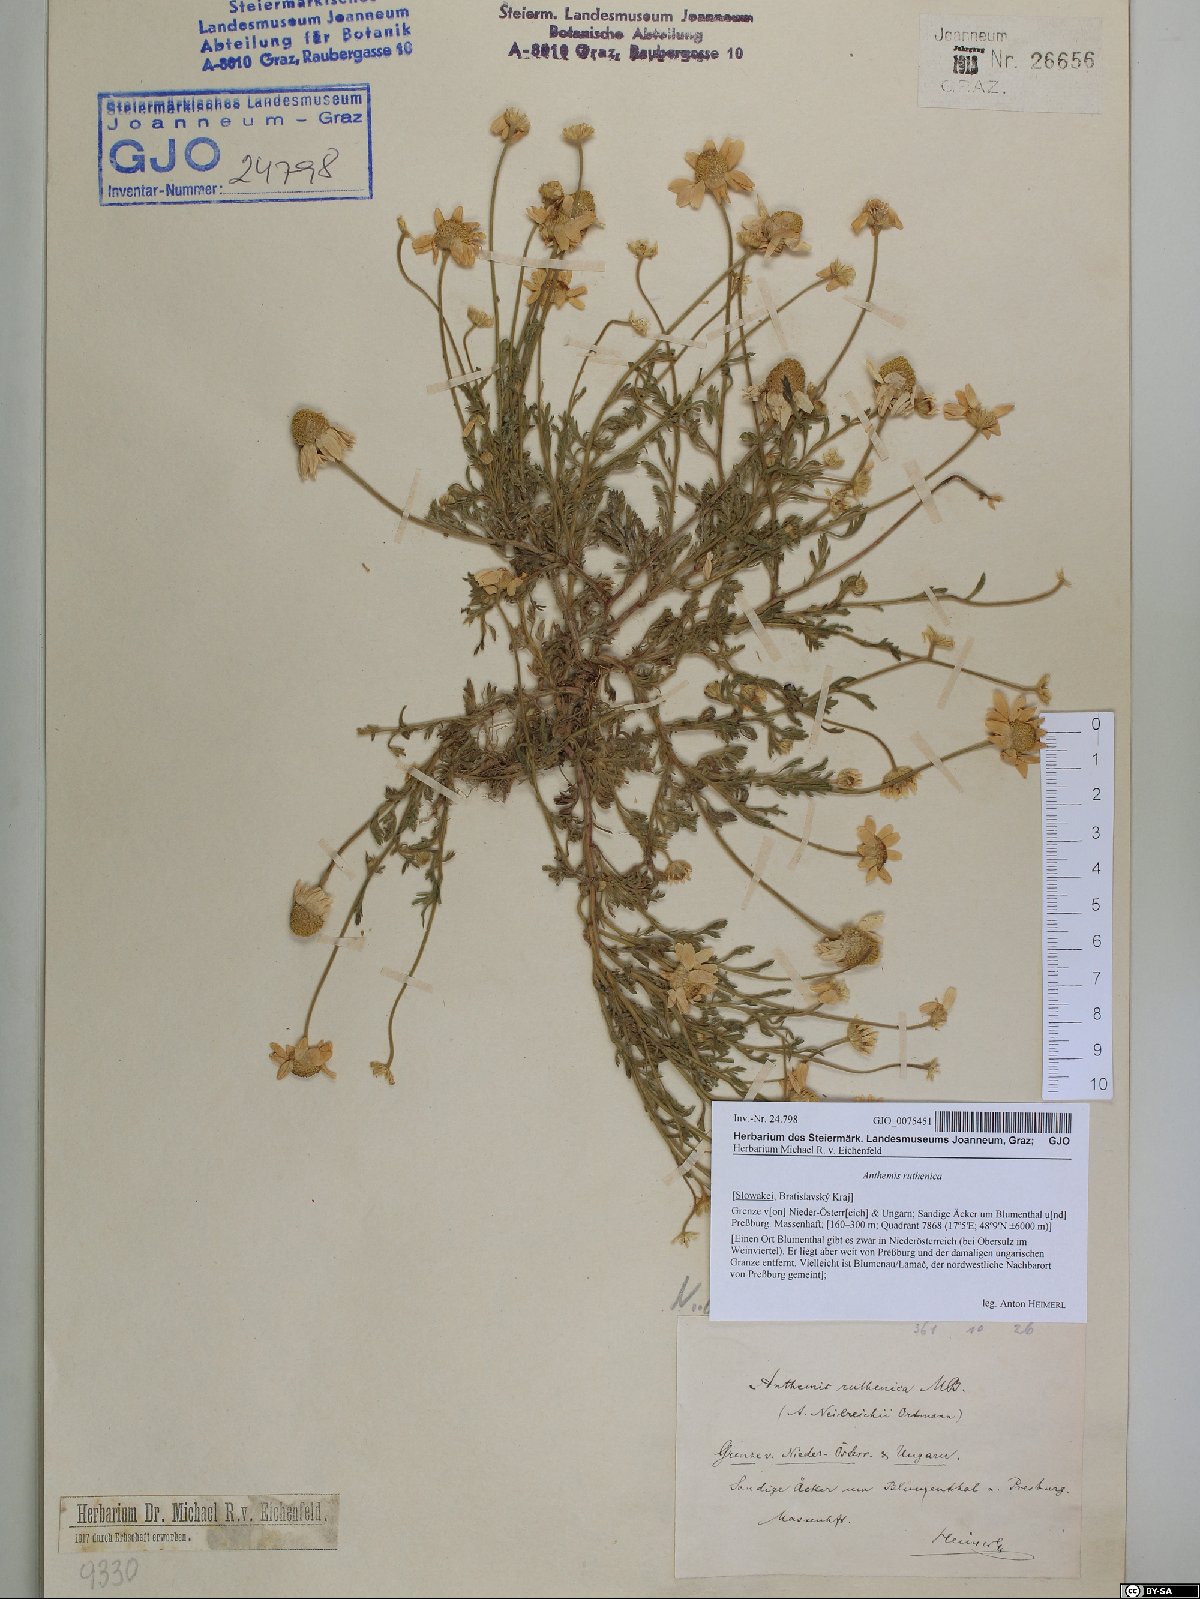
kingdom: Plantae
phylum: Tracheophyta
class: Magnoliopsida
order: Asterales
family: Asteraceae
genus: Anthemis
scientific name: Anthemis ruthenica
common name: Eastern chamomile
